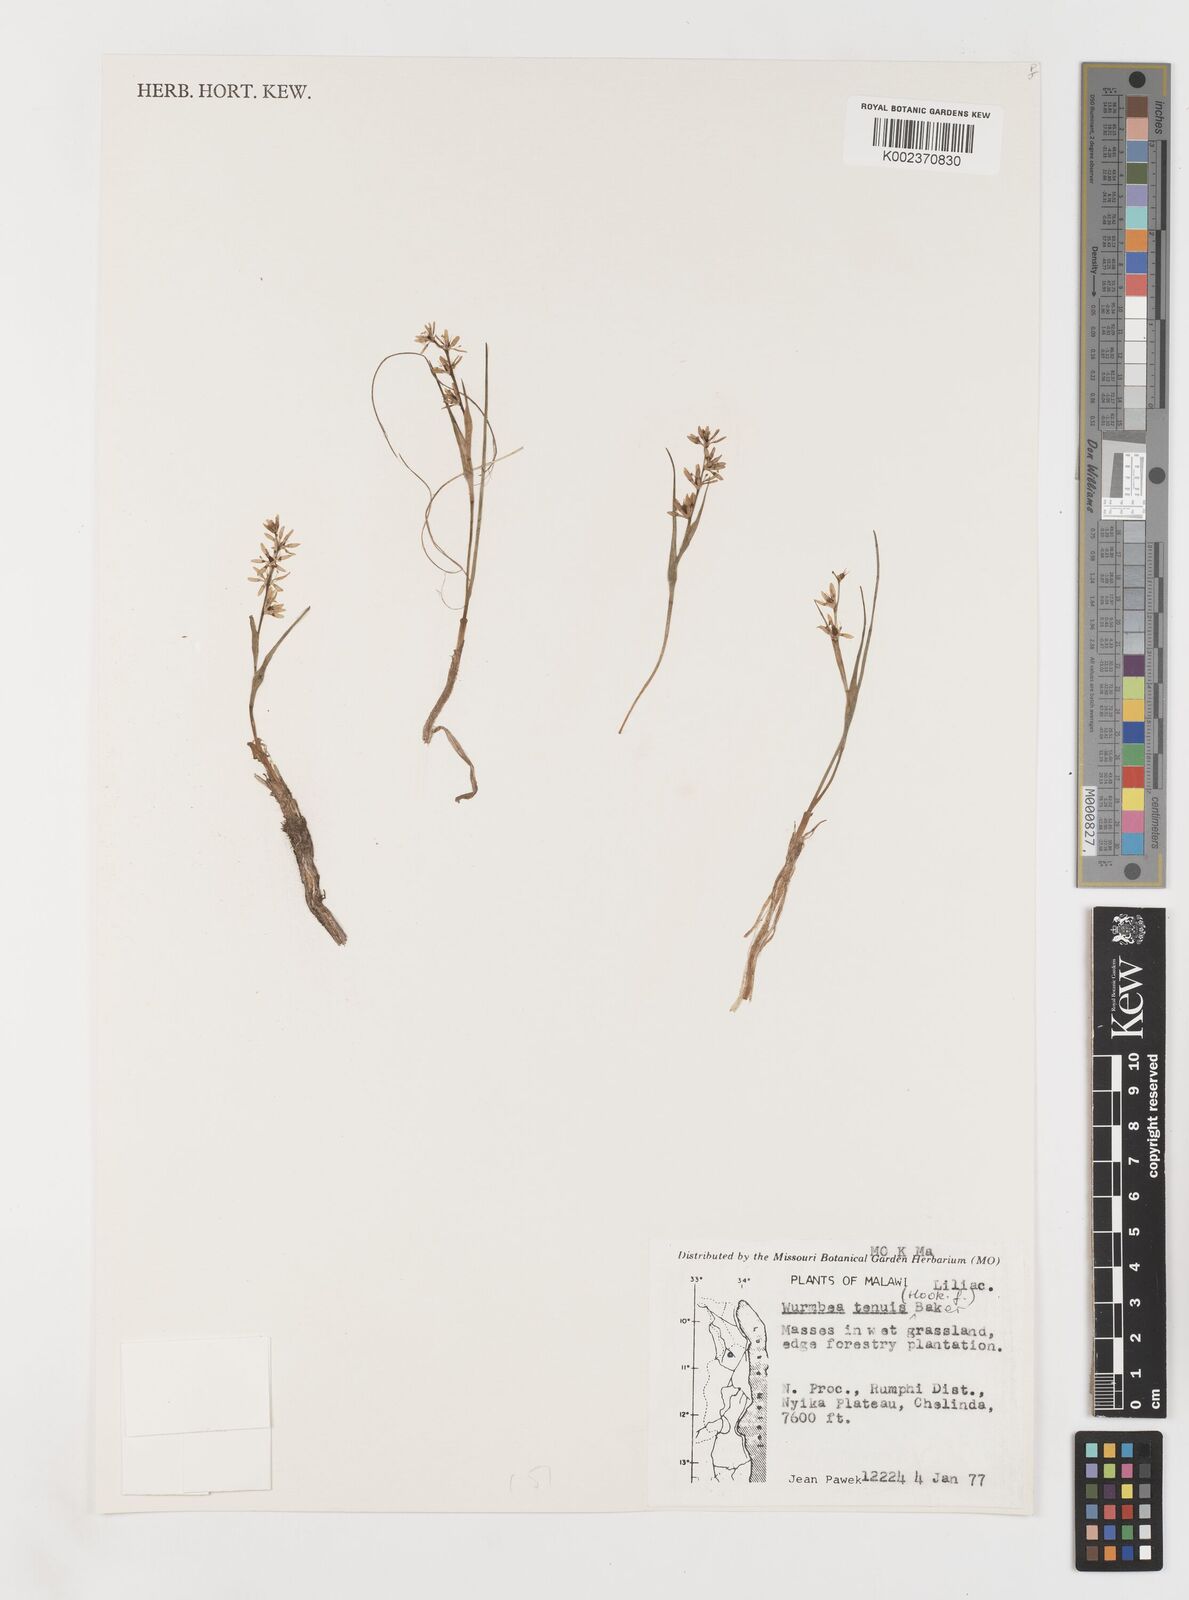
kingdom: Plantae
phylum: Tracheophyta
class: Liliopsida
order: Liliales
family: Colchicaceae
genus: Wurmbea
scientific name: Wurmbea tenuis
